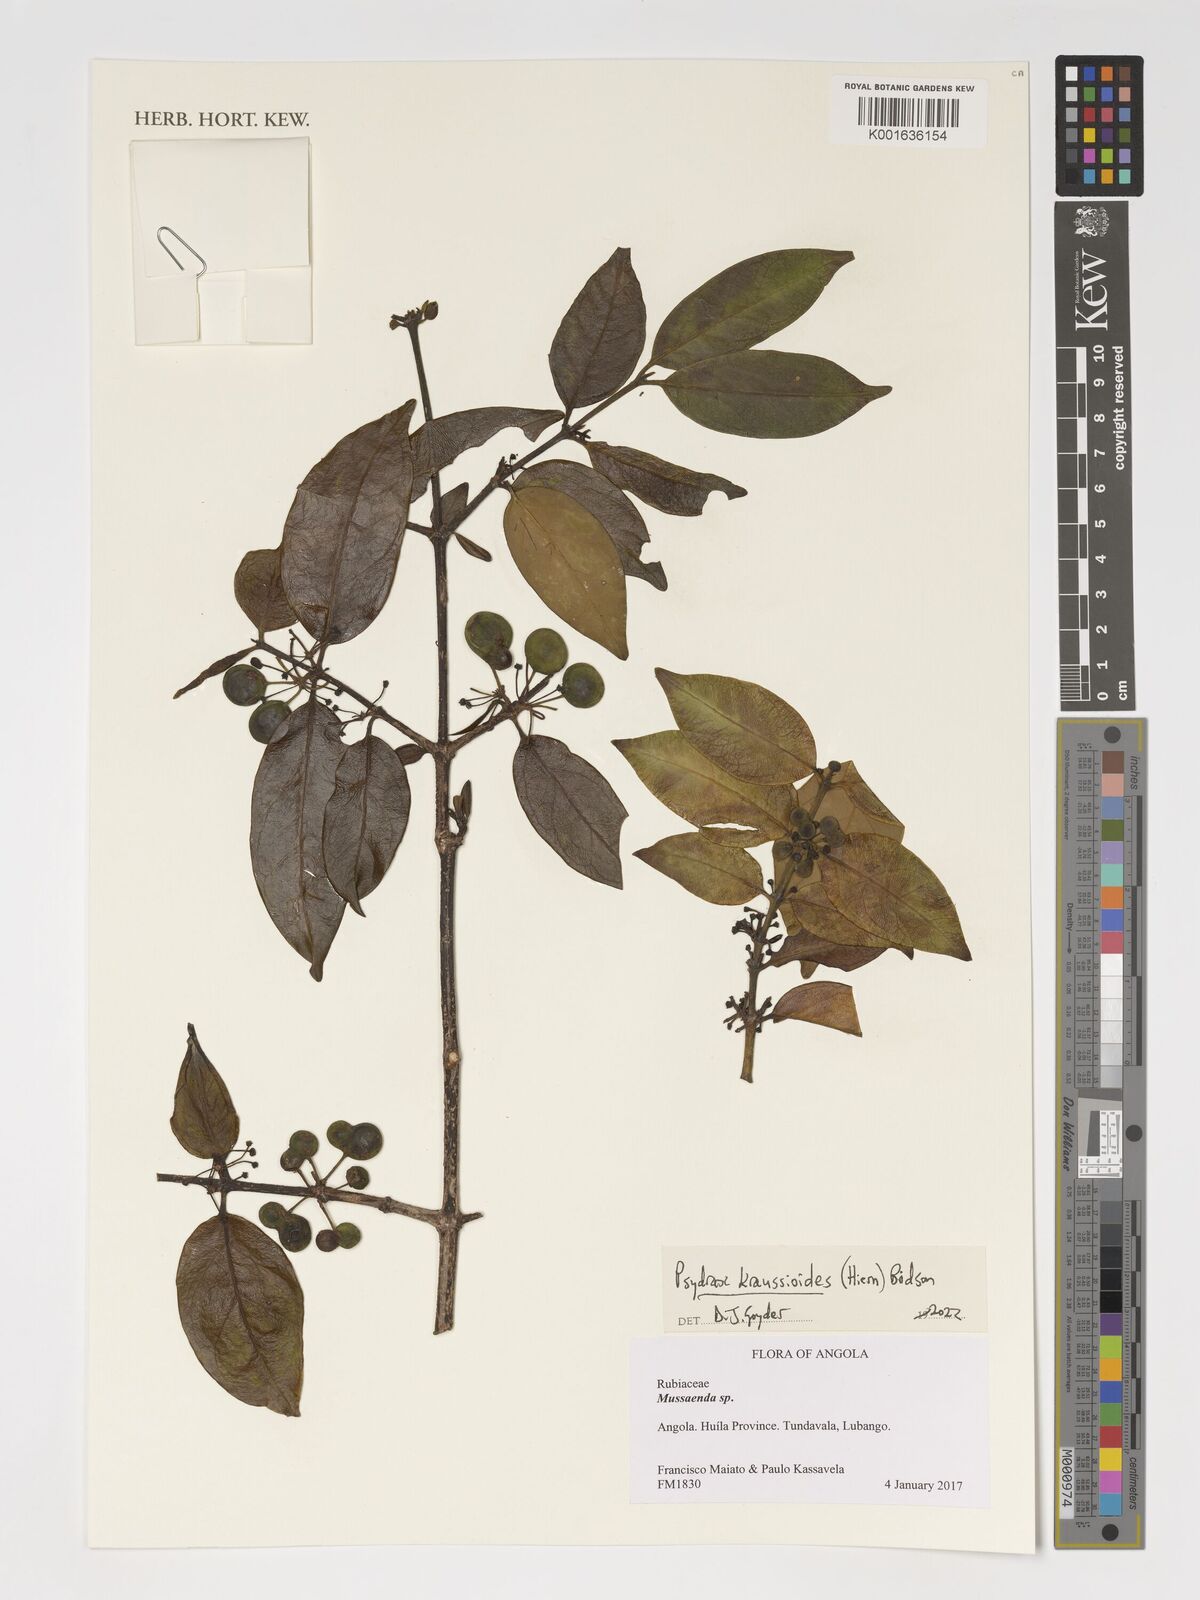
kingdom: Plantae
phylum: Tracheophyta
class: Magnoliopsida
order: Gentianales
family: Rubiaceae
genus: Psydrax
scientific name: Psydrax kraussioides
